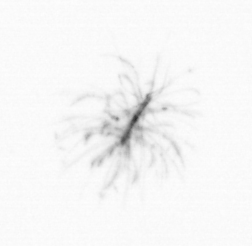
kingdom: Chromista
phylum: Ochrophyta
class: Bacillariophyceae
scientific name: Bacillariophyceae
